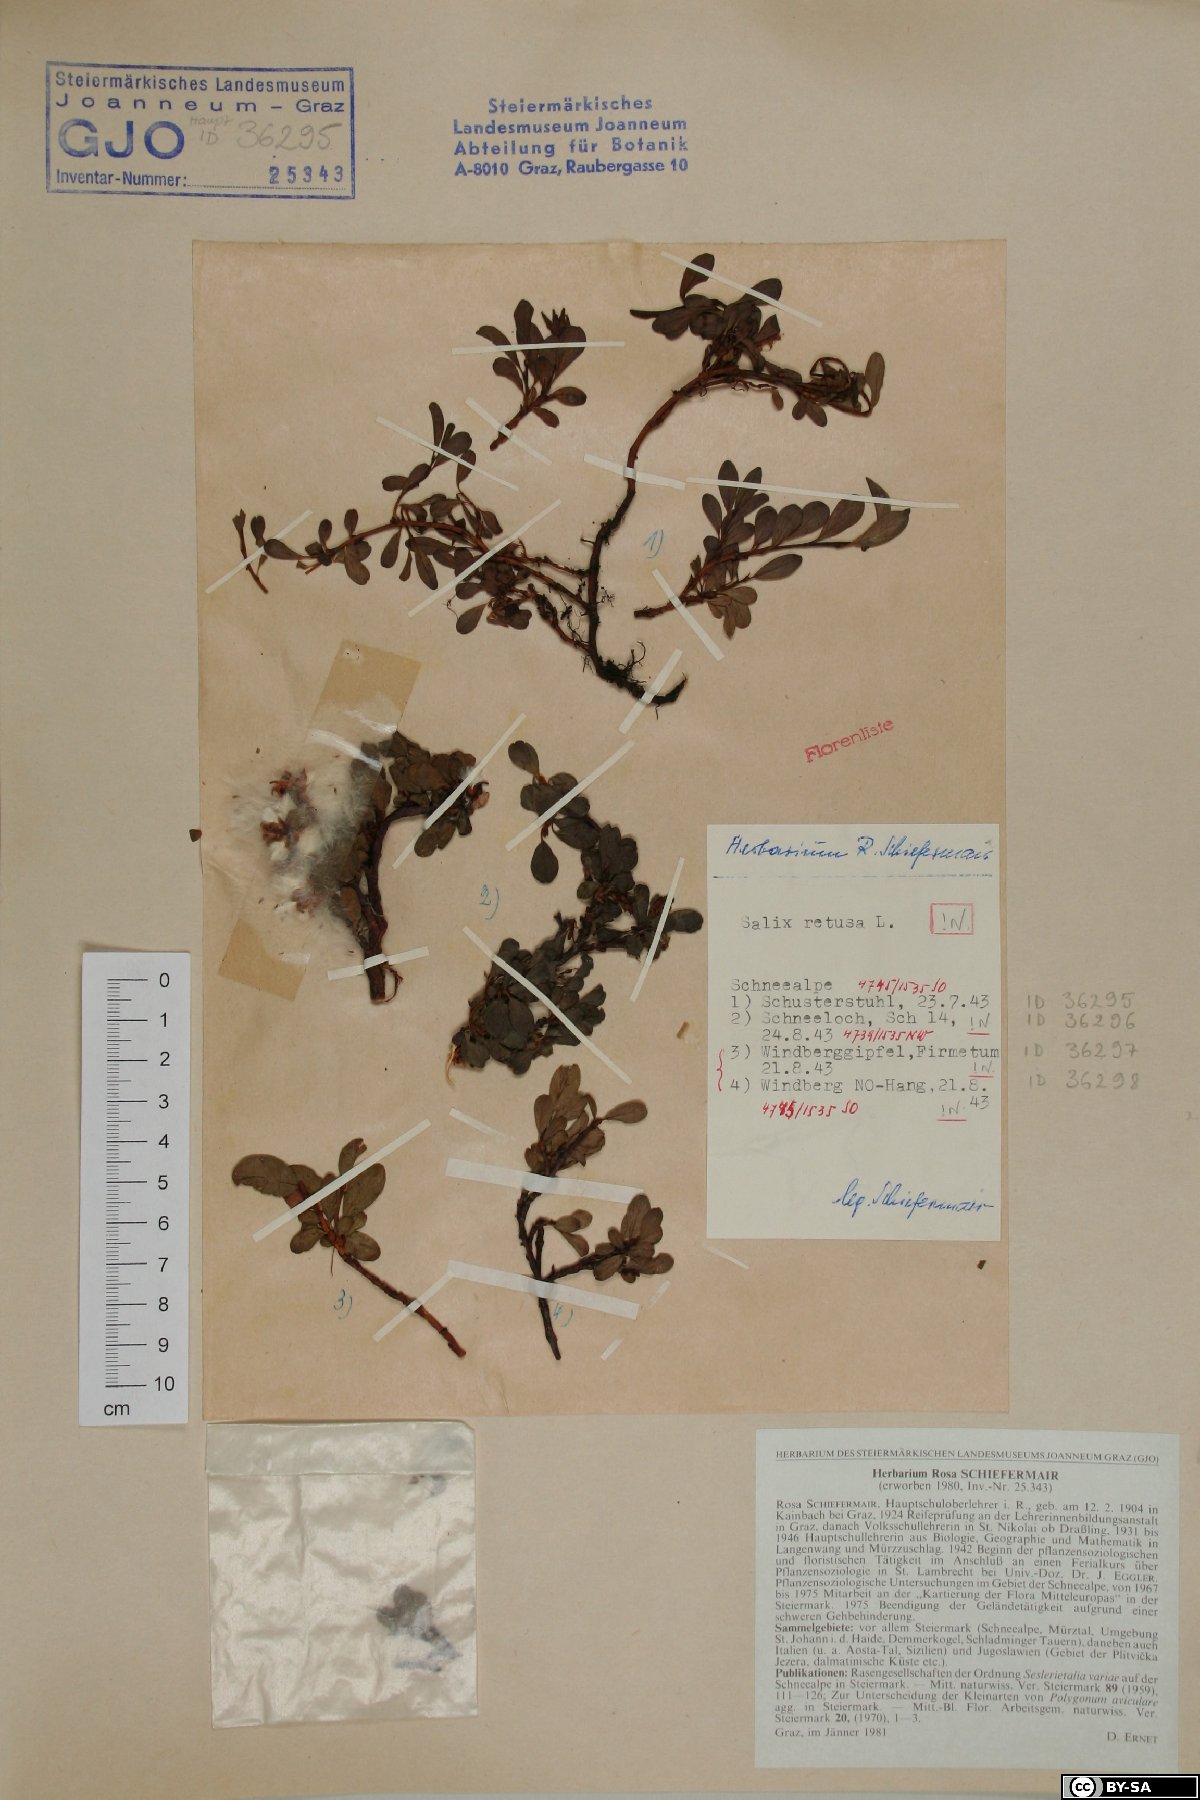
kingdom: Plantae
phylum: Tracheophyta
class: Magnoliopsida
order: Malpighiales
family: Salicaceae
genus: Salix
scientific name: Salix retusa
